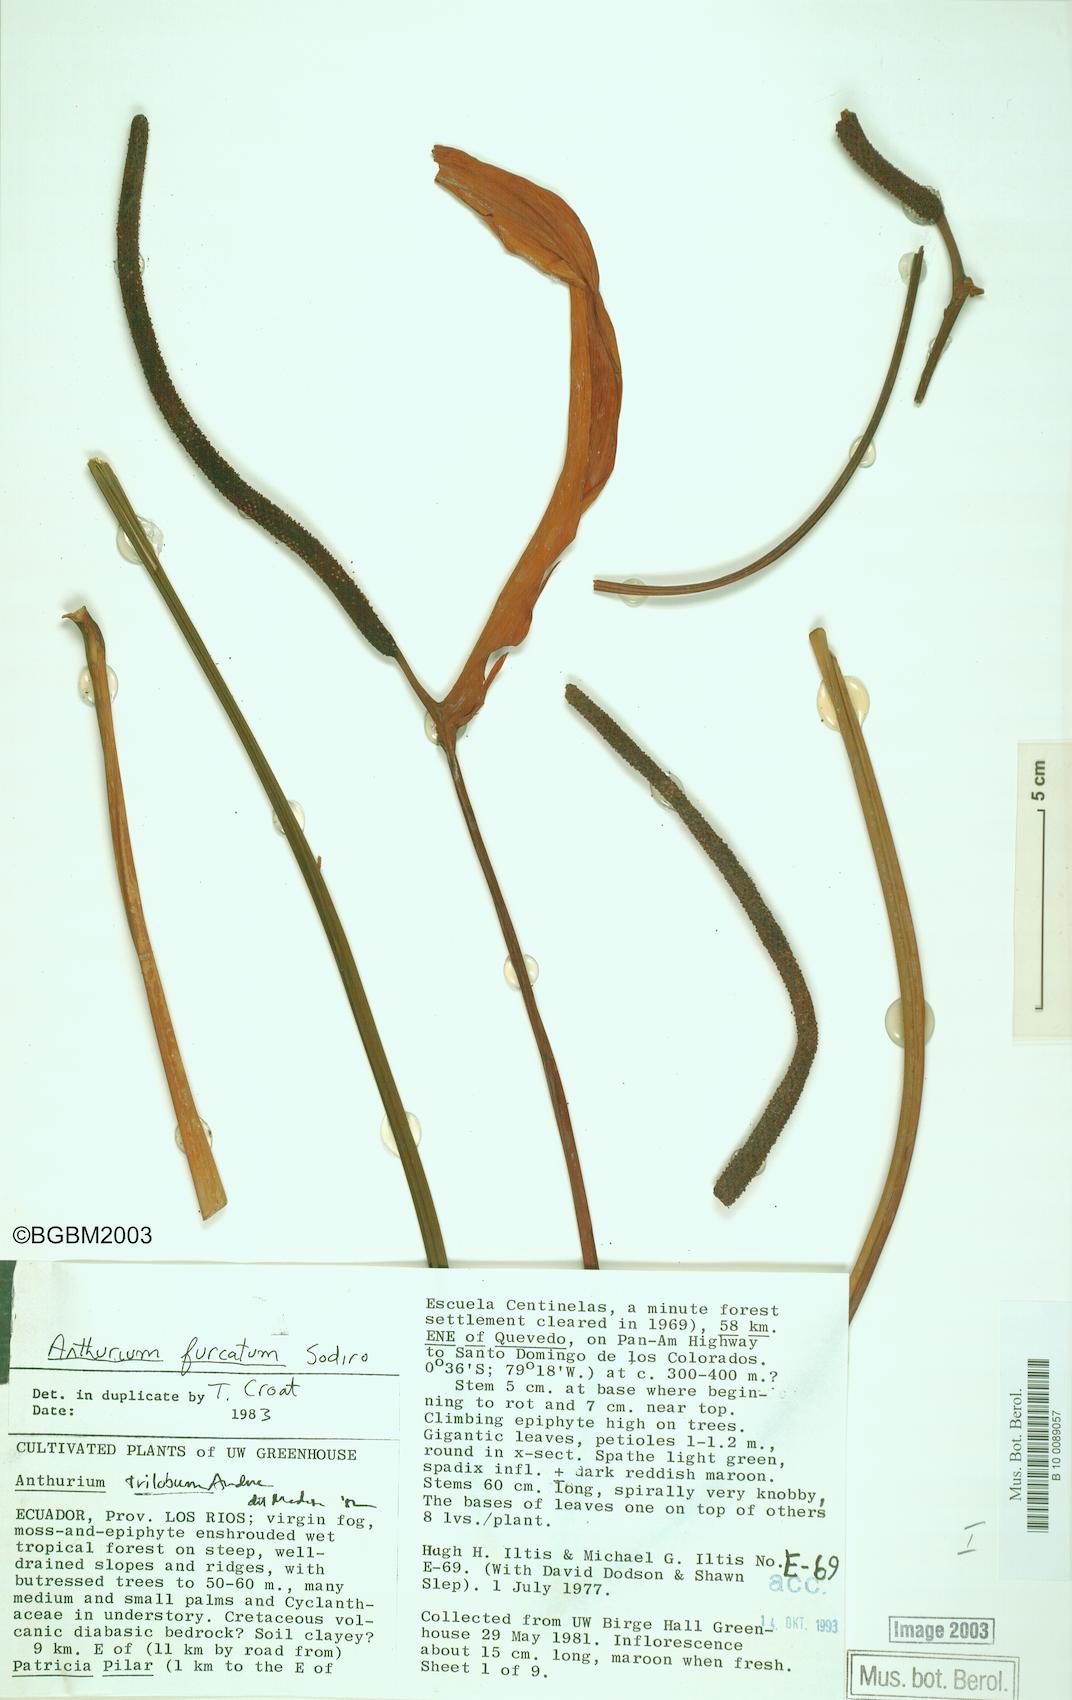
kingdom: Plantae
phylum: Tracheophyta
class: Liliopsida
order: Alismatales
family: Araceae
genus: Anthurium
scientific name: Anthurium furcatum
